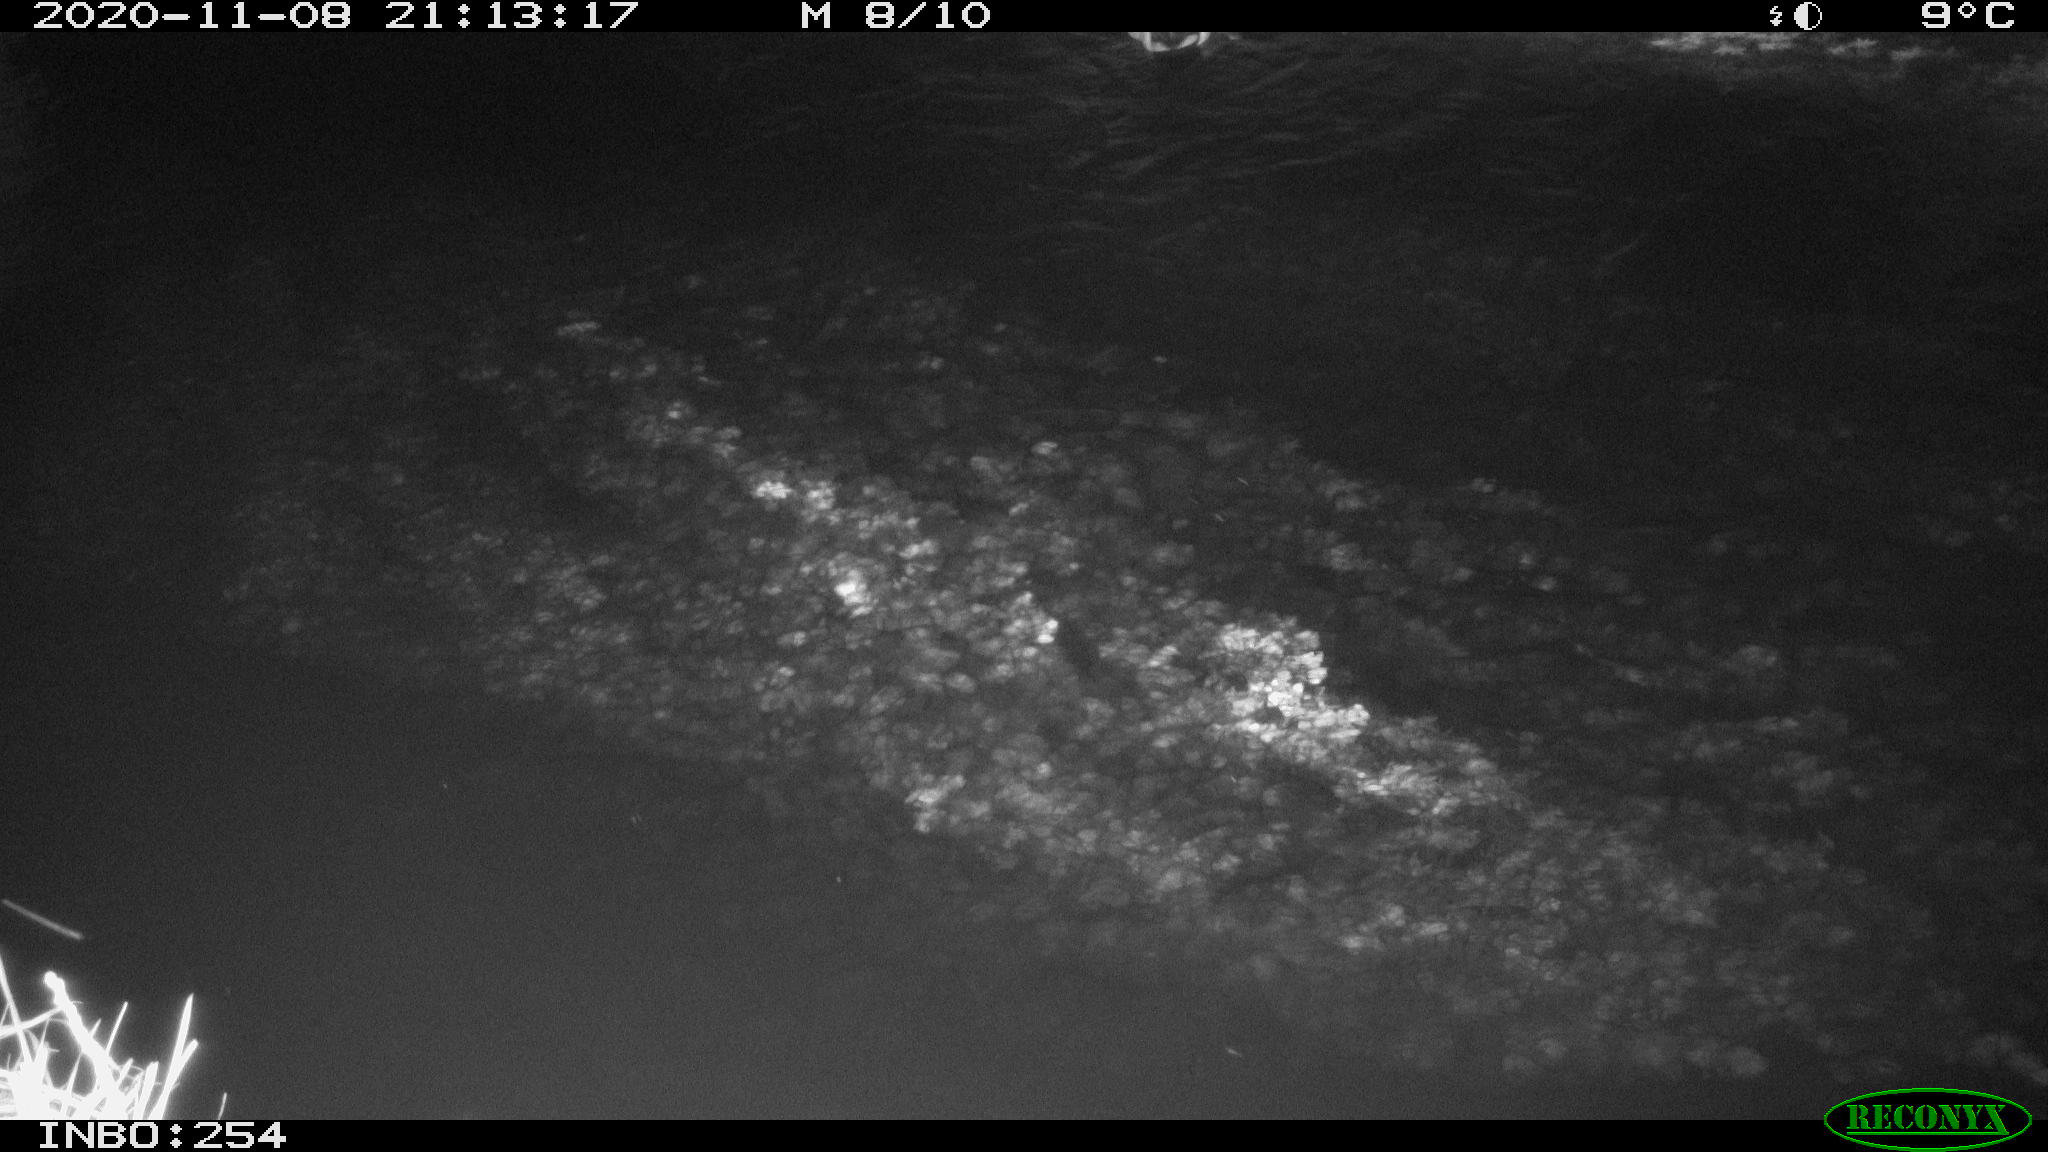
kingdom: Animalia
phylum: Chordata
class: Aves
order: Anseriformes
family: Anatidae
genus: Anas
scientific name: Anas platyrhynchos
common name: Mallard
